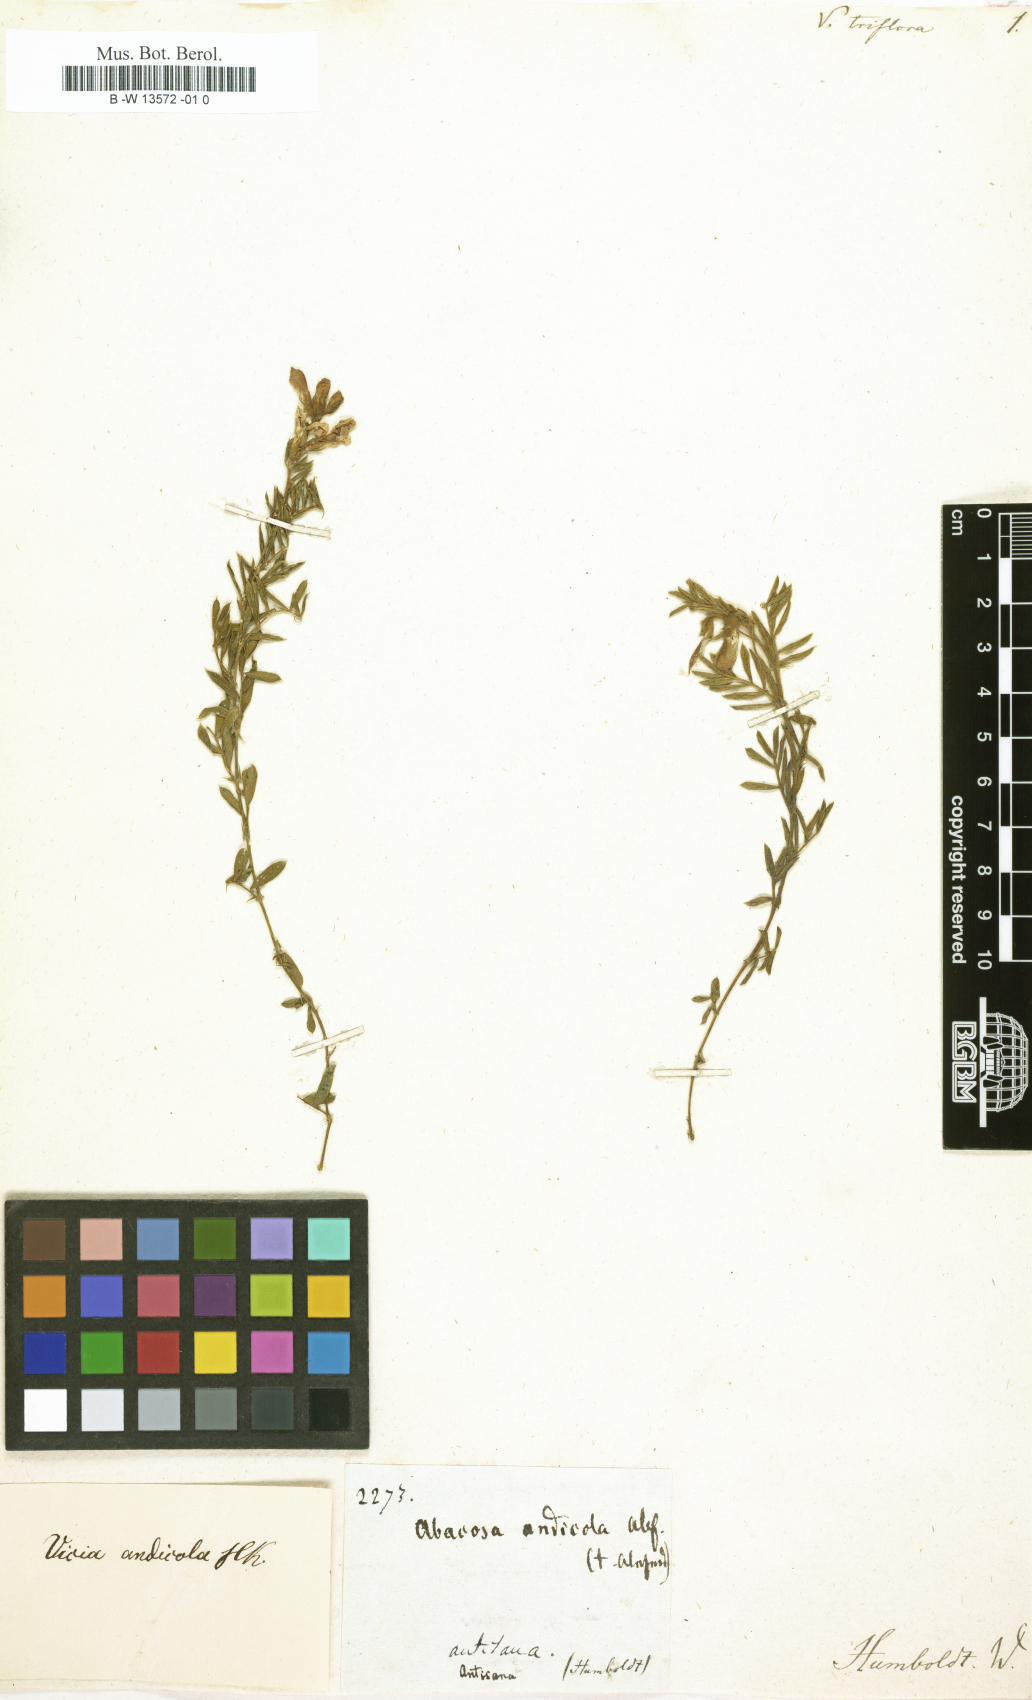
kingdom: Plantae
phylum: Tracheophyta
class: Magnoliopsida
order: Fabales
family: Fabaceae
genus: Vicia
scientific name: Vicia monantha
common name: Barn vetch
